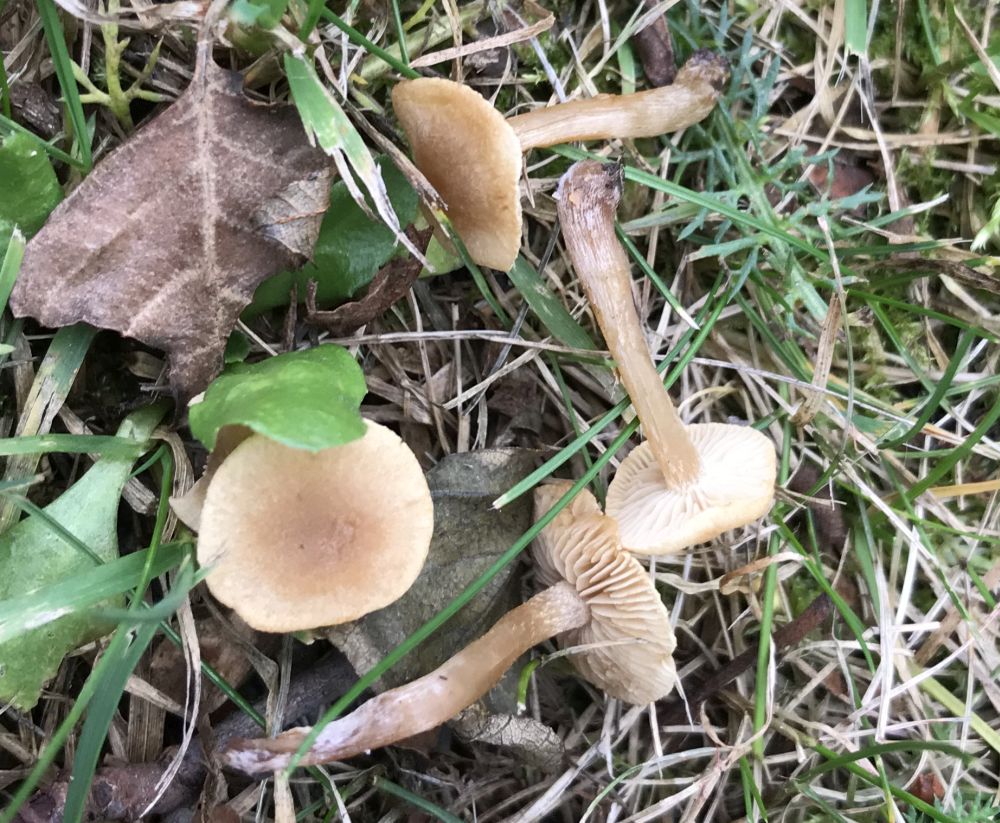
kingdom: Fungi
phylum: Basidiomycota
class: Agaricomycetes
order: Agaricales
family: Hymenogastraceae
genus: Naucoria
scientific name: Naucoria escharioides
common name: lys elle-knaphat
